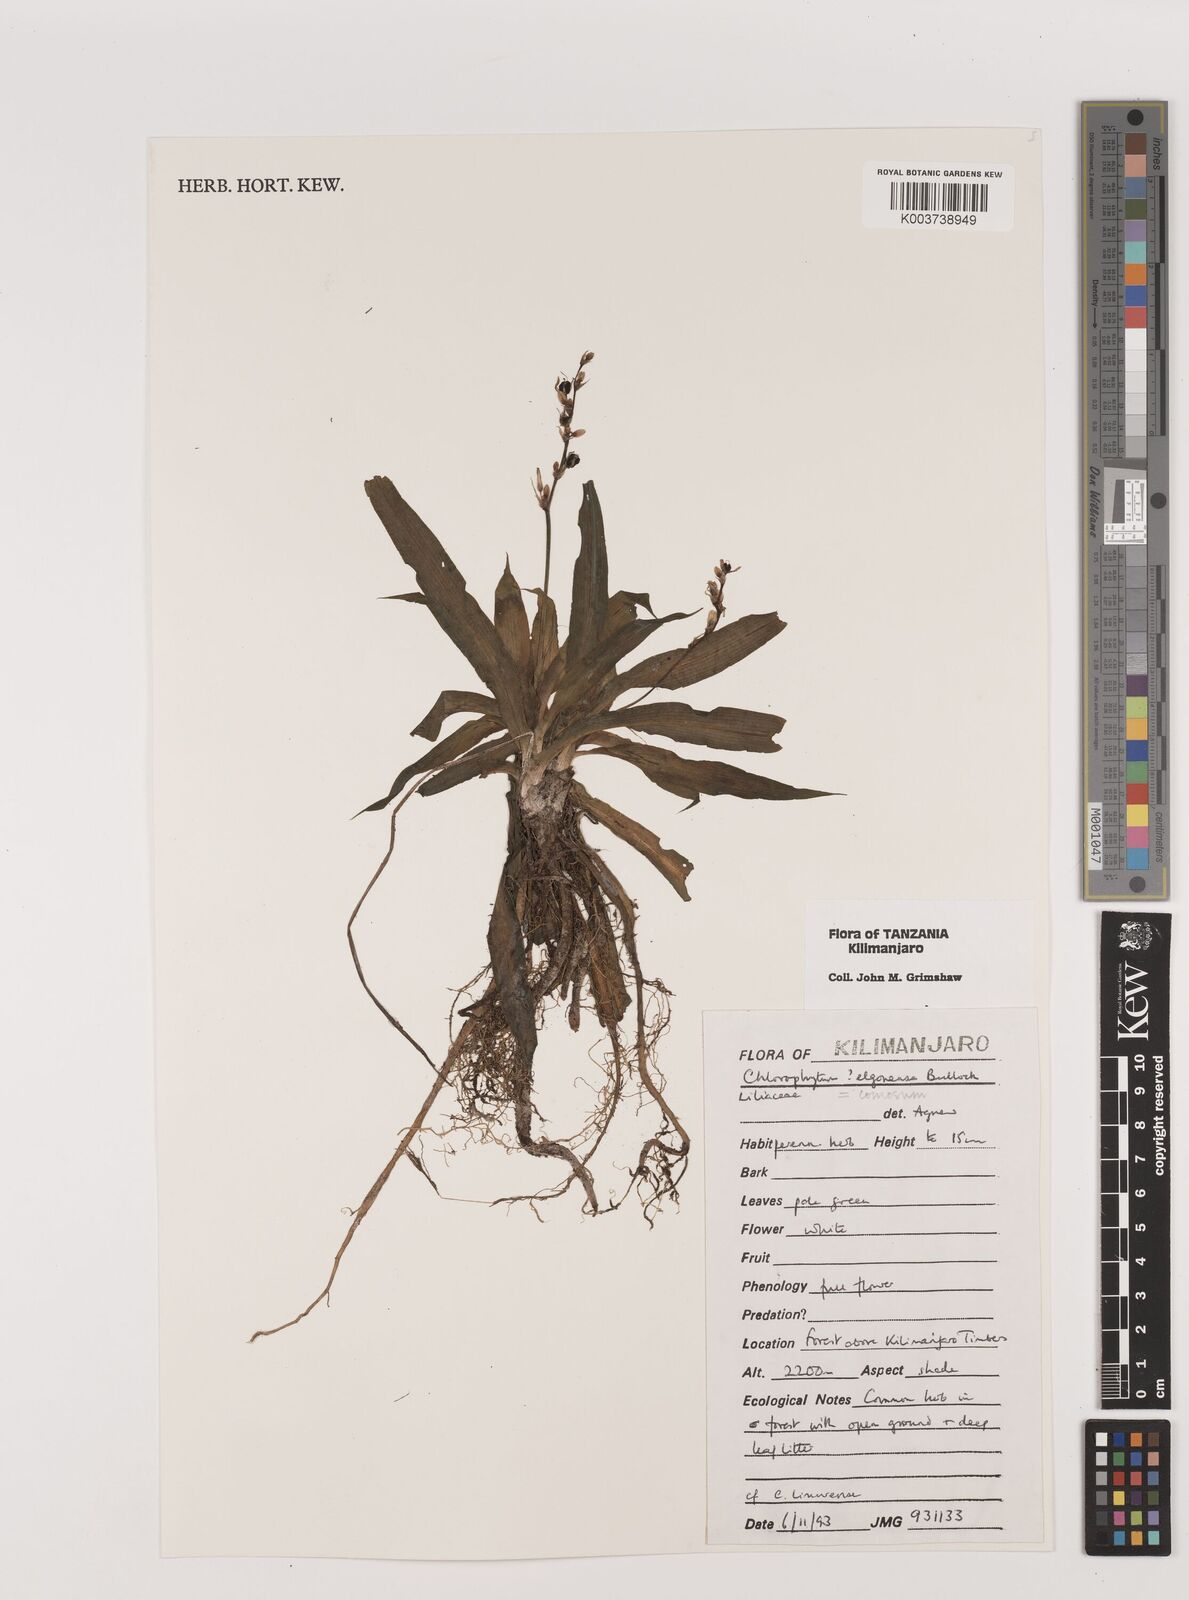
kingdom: Plantae
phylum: Tracheophyta
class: Liliopsida
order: Asparagales
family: Asparagaceae
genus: Chlorophytum
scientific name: Chlorophytum comosum
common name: Spider plant
